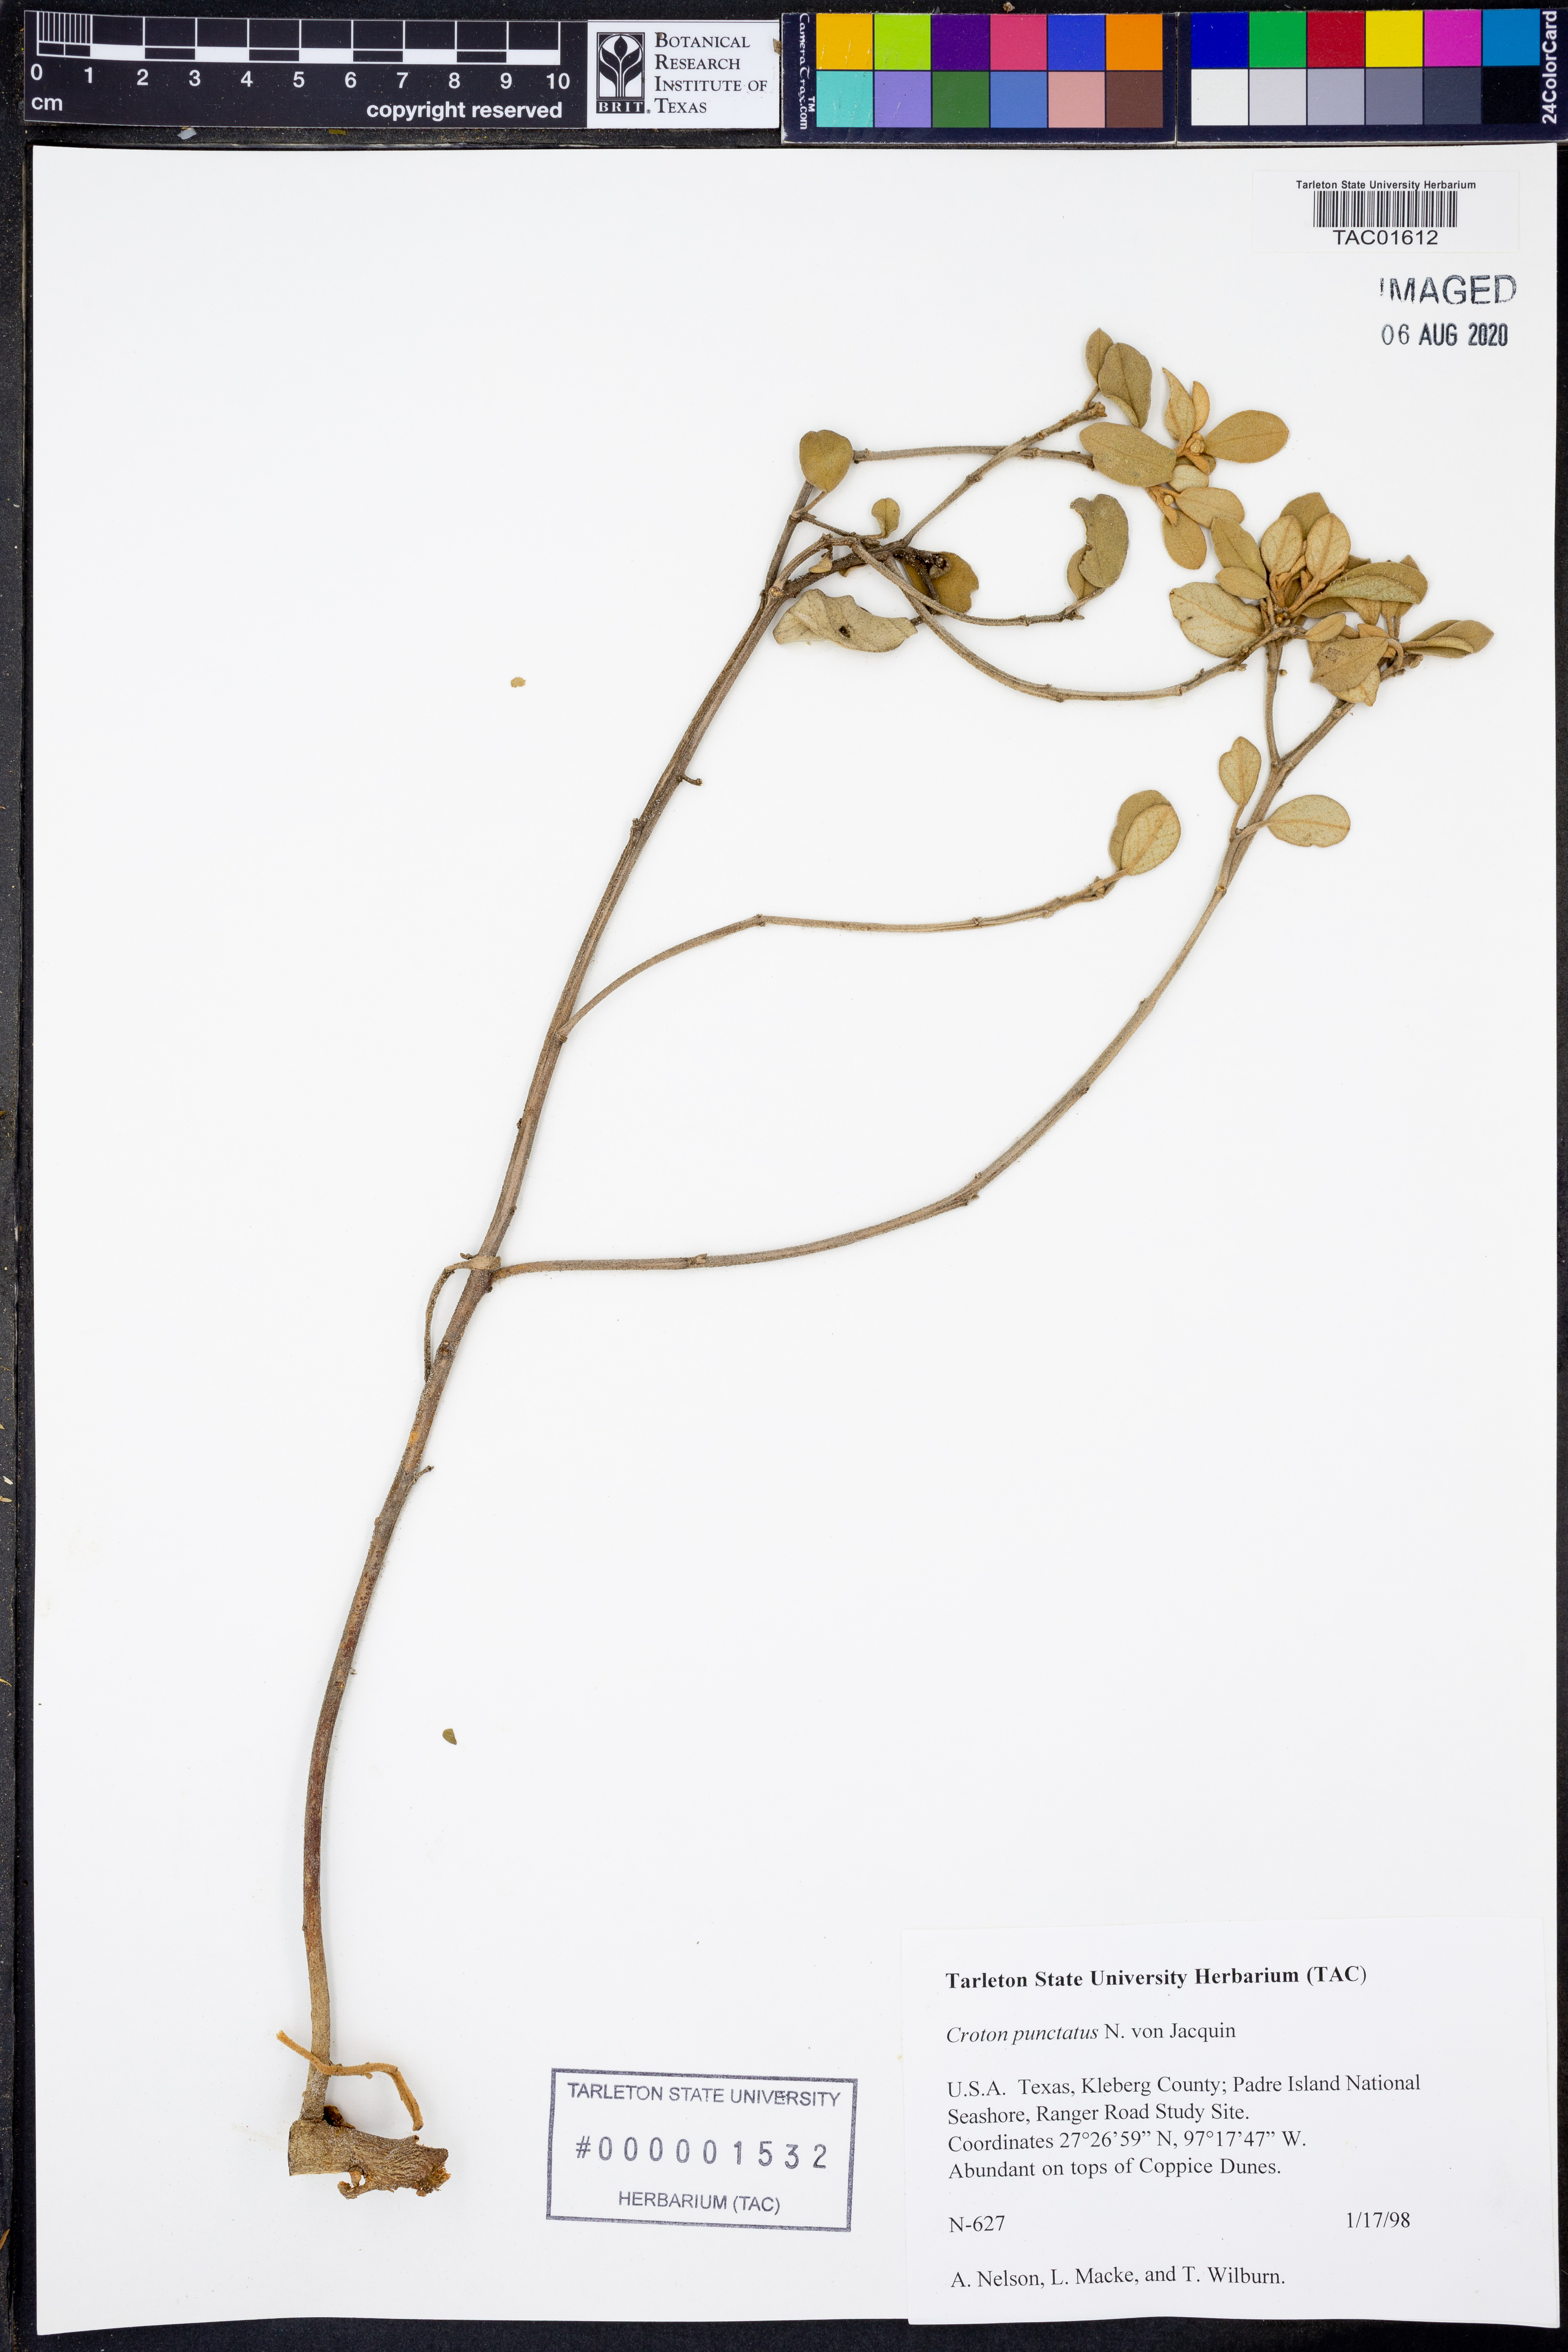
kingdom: Plantae
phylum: Tracheophyta
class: Magnoliopsida
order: Malpighiales
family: Euphorbiaceae
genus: Croton
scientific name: Croton punctatus
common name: Beach-tea
